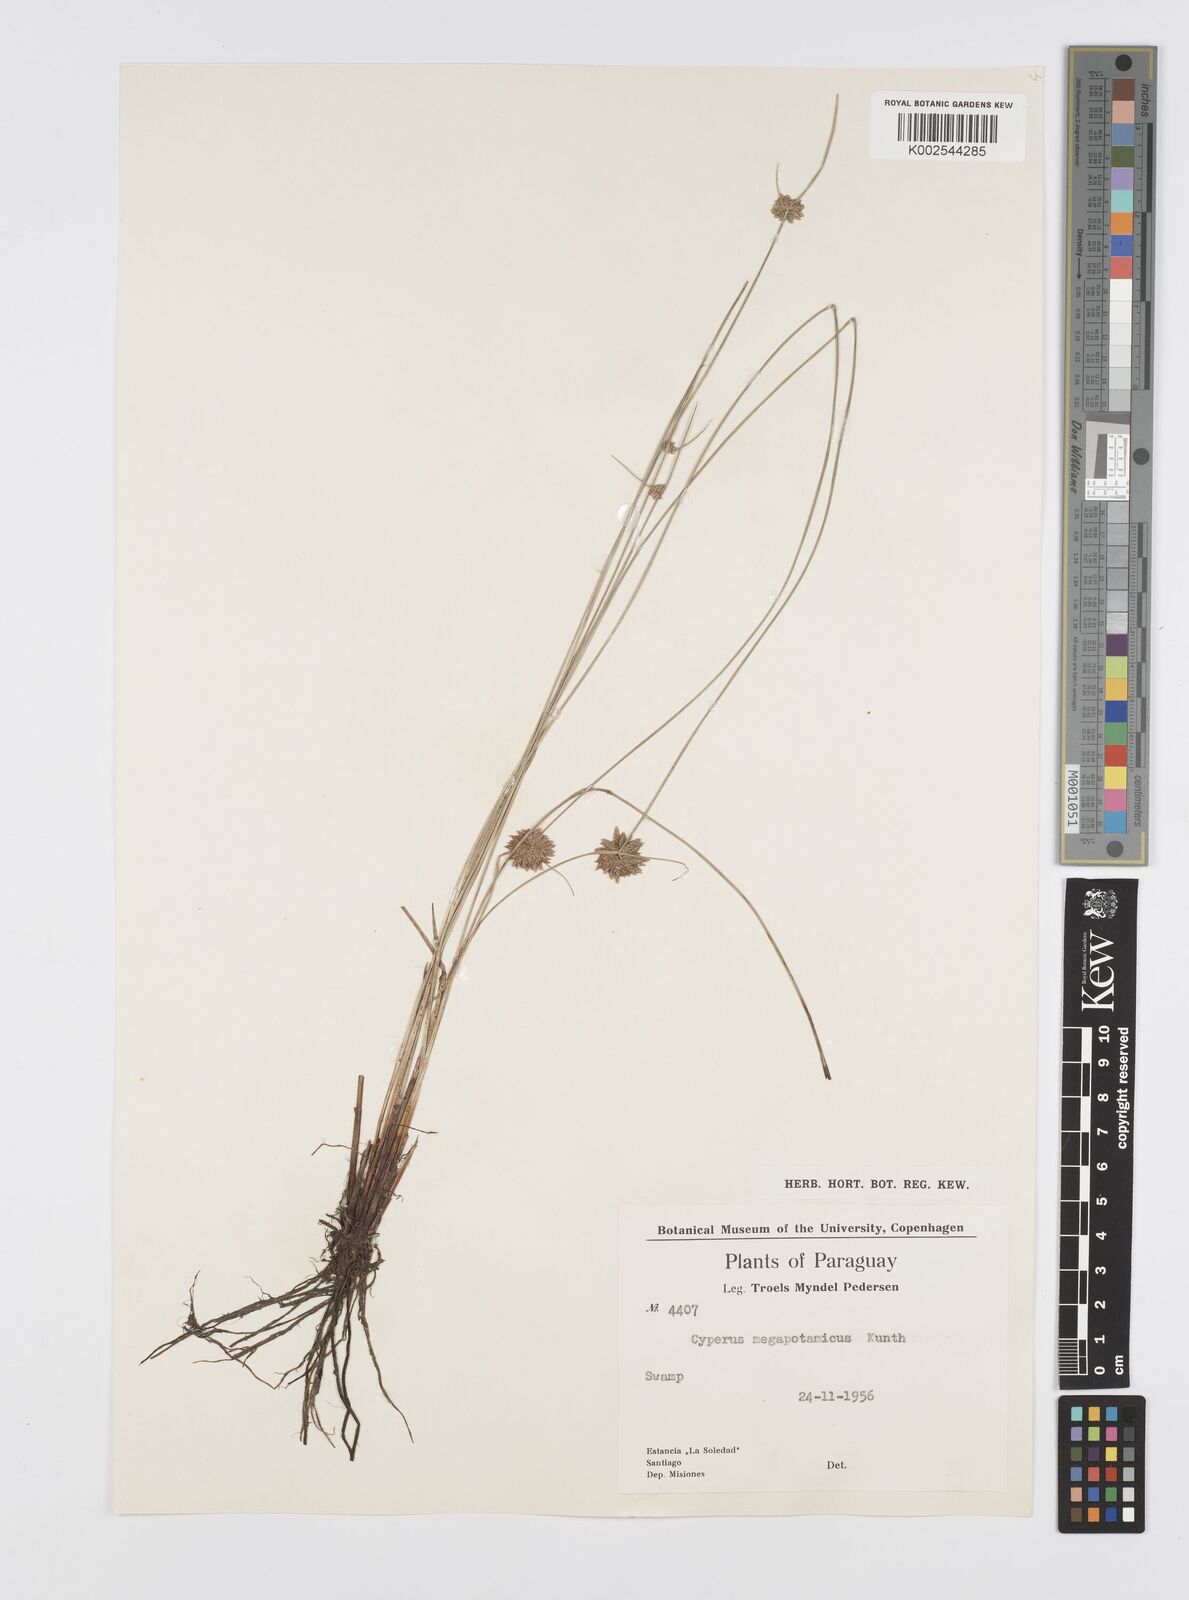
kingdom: Plantae
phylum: Tracheophyta
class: Liliopsida
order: Poales
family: Cyperaceae
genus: Cyperus
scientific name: Cyperus megapotamicus
